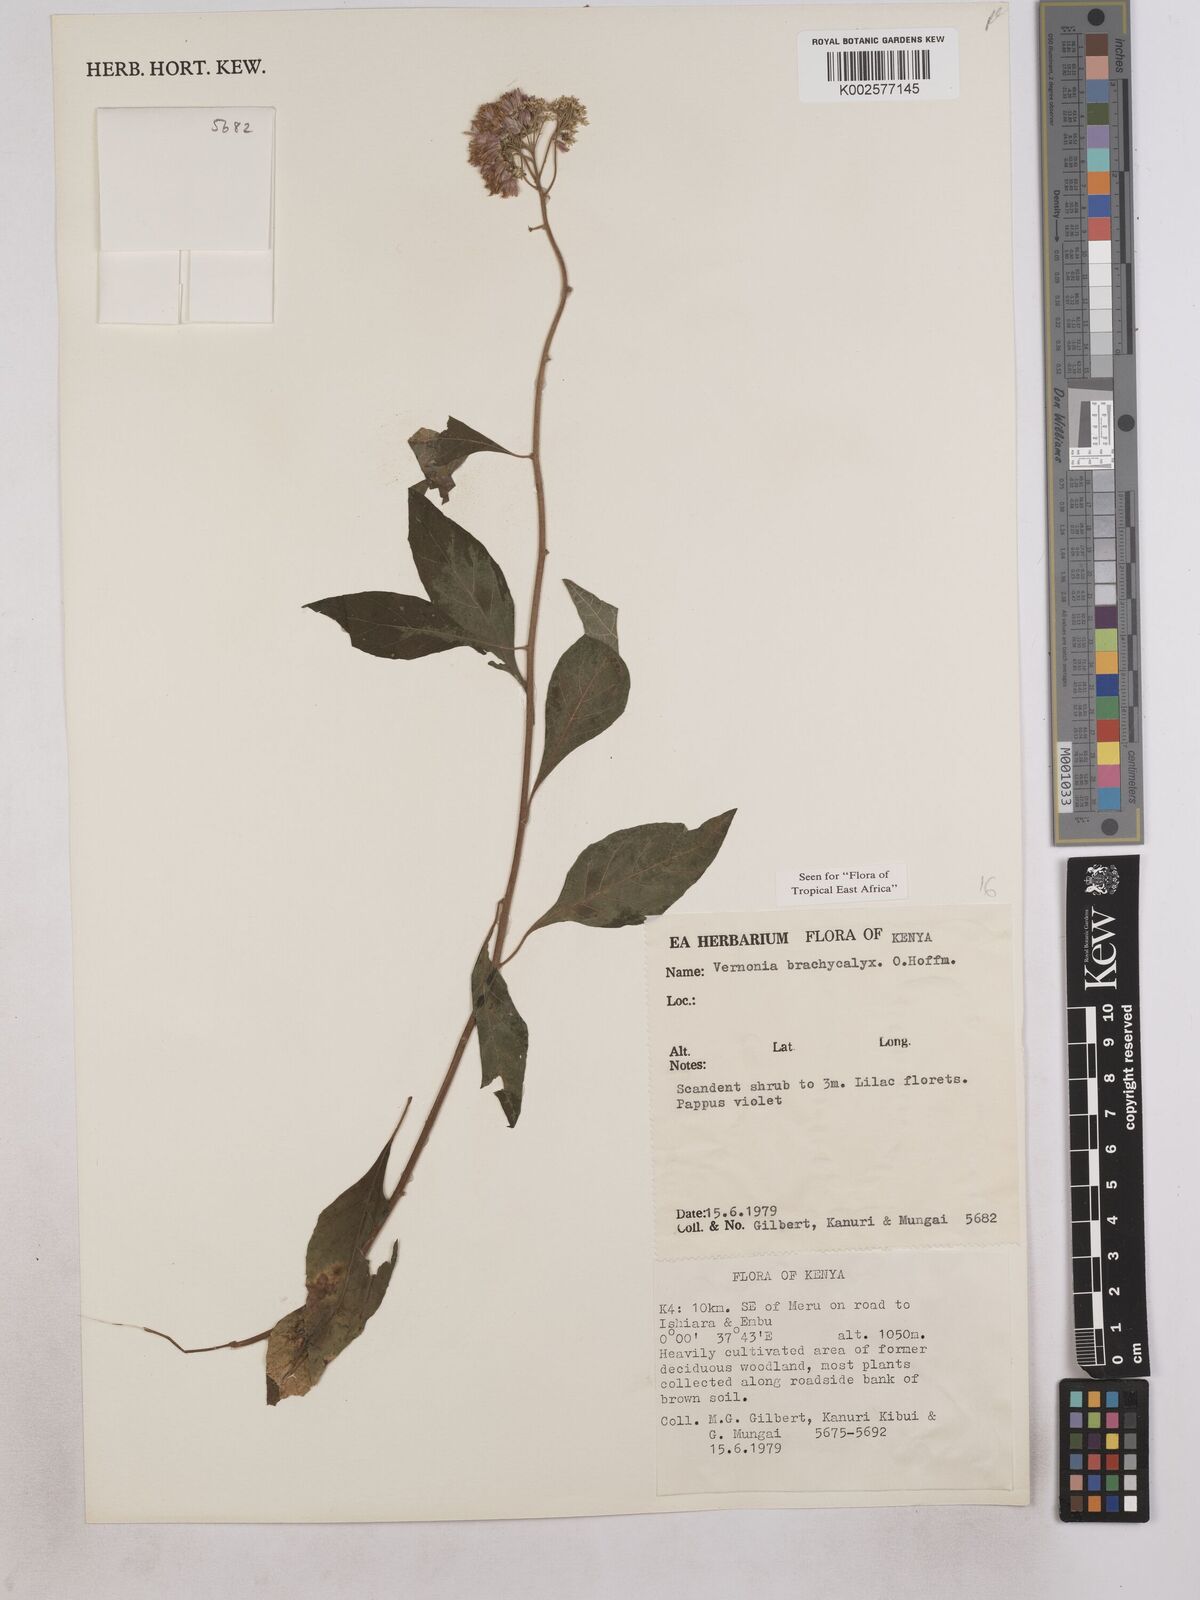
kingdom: Plantae
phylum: Tracheophyta
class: Magnoliopsida
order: Asterales
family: Asteraceae
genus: Hoffmannanthus
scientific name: Hoffmannanthus abbotianus
